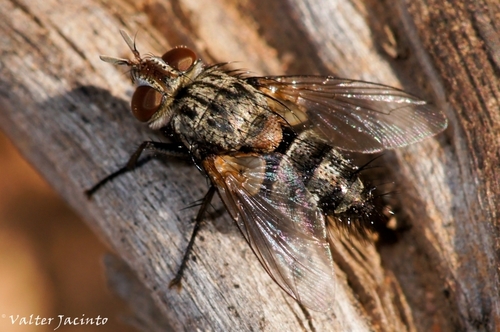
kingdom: Animalia
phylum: Arthropoda
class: Insecta
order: Diptera
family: Tachinidae
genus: Chetogena
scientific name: Chetogena acuminata
